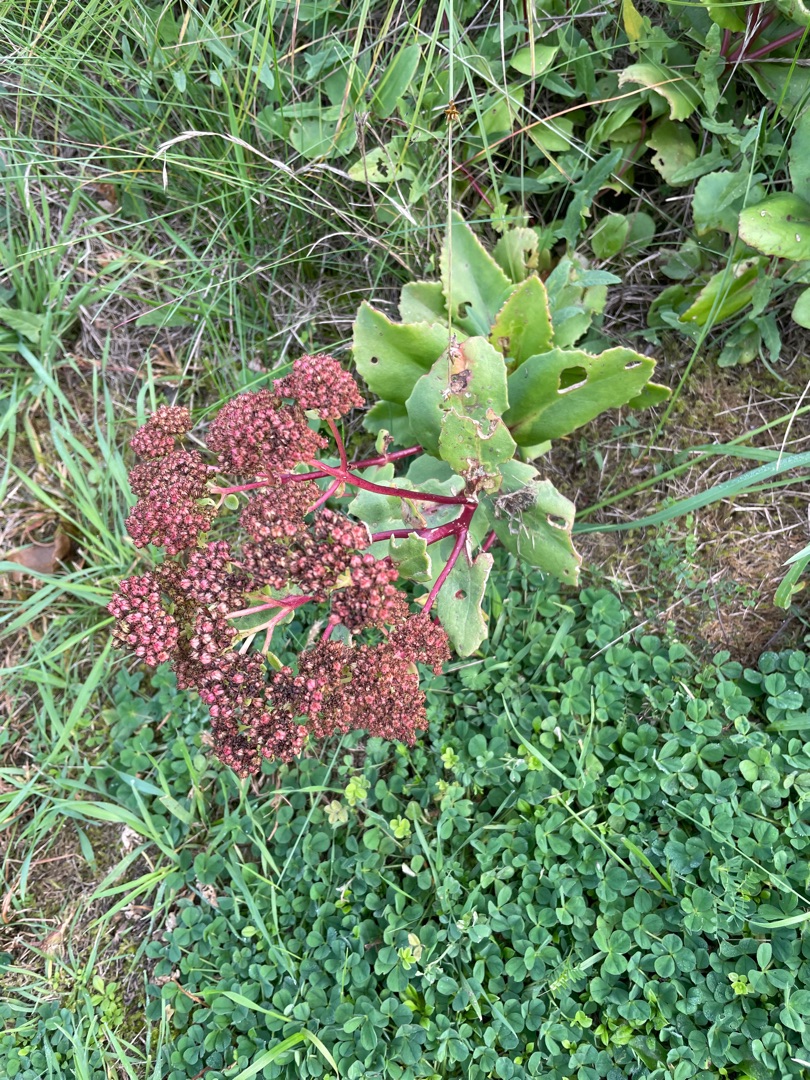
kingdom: Plantae
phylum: Tracheophyta
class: Magnoliopsida
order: Saxifragales
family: Crassulaceae
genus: Hylotelephium
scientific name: Hylotelephium maximum
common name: Almindelig sankthansurt
